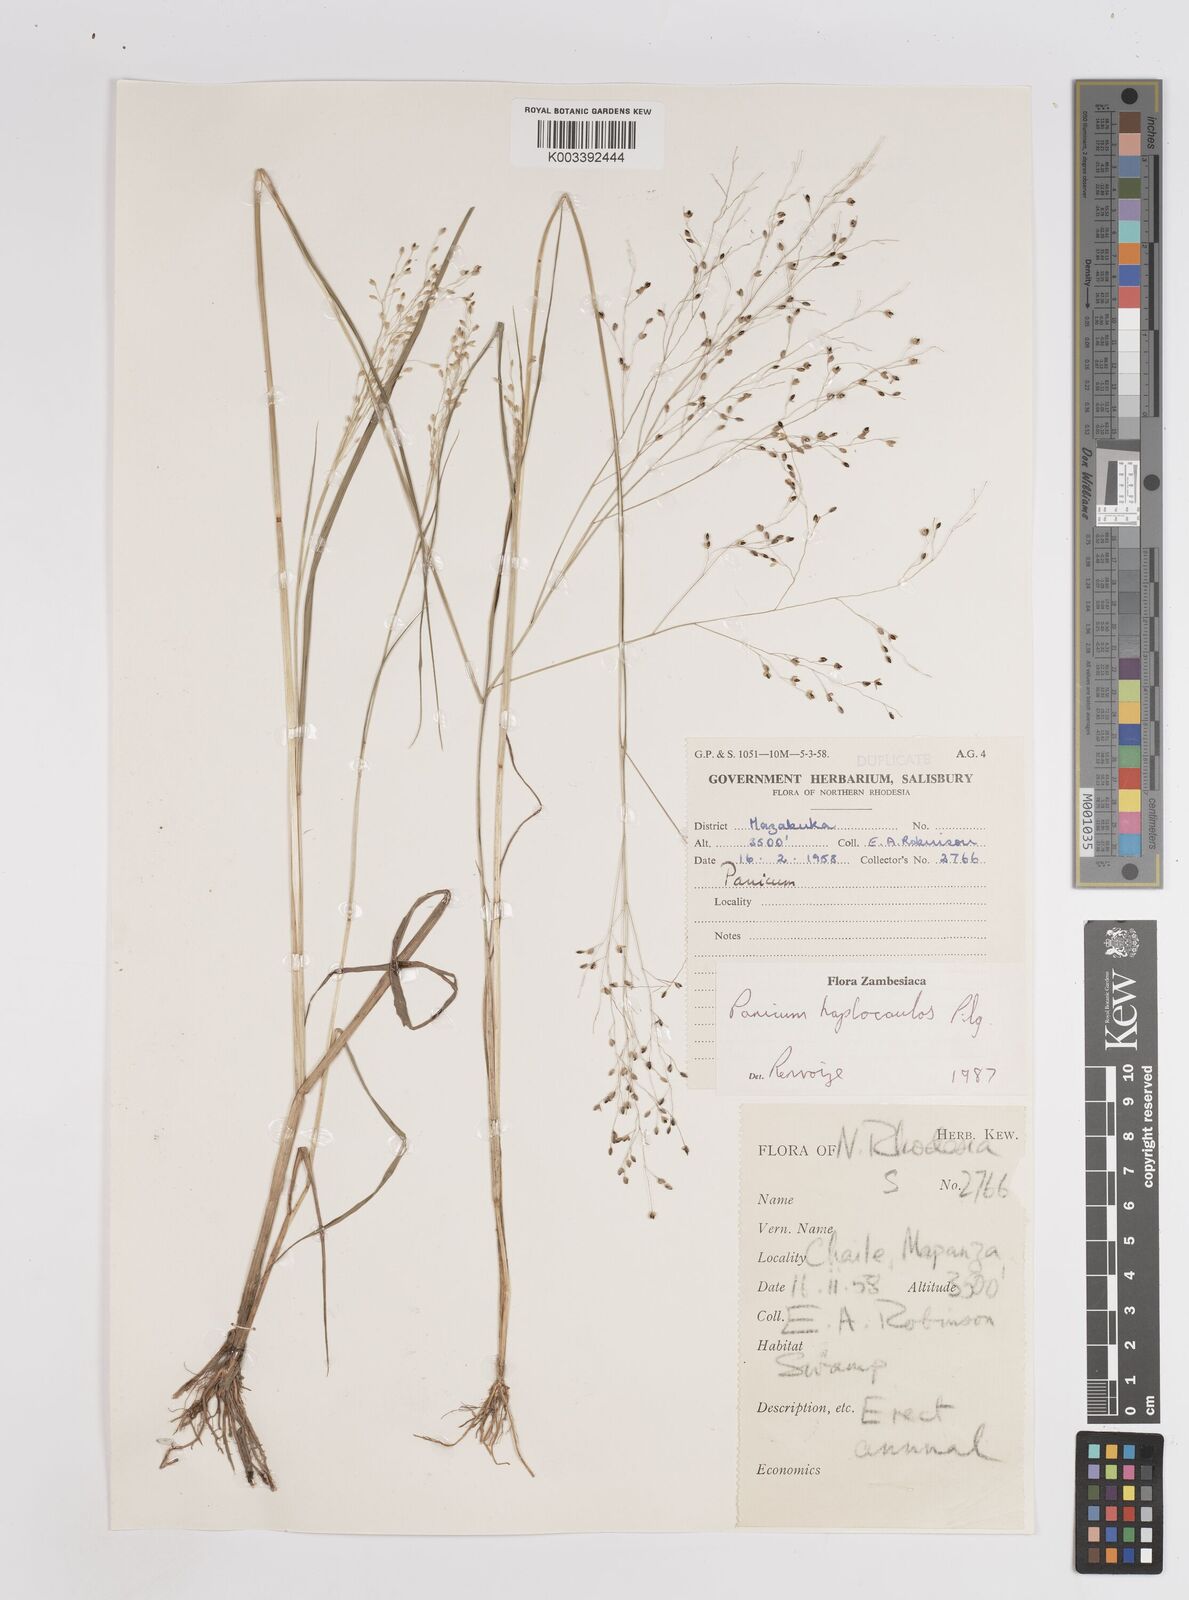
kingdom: Plantae
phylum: Tracheophyta
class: Liliopsida
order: Poales
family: Poaceae
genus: Panicum
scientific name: Panicum haplocaulos
